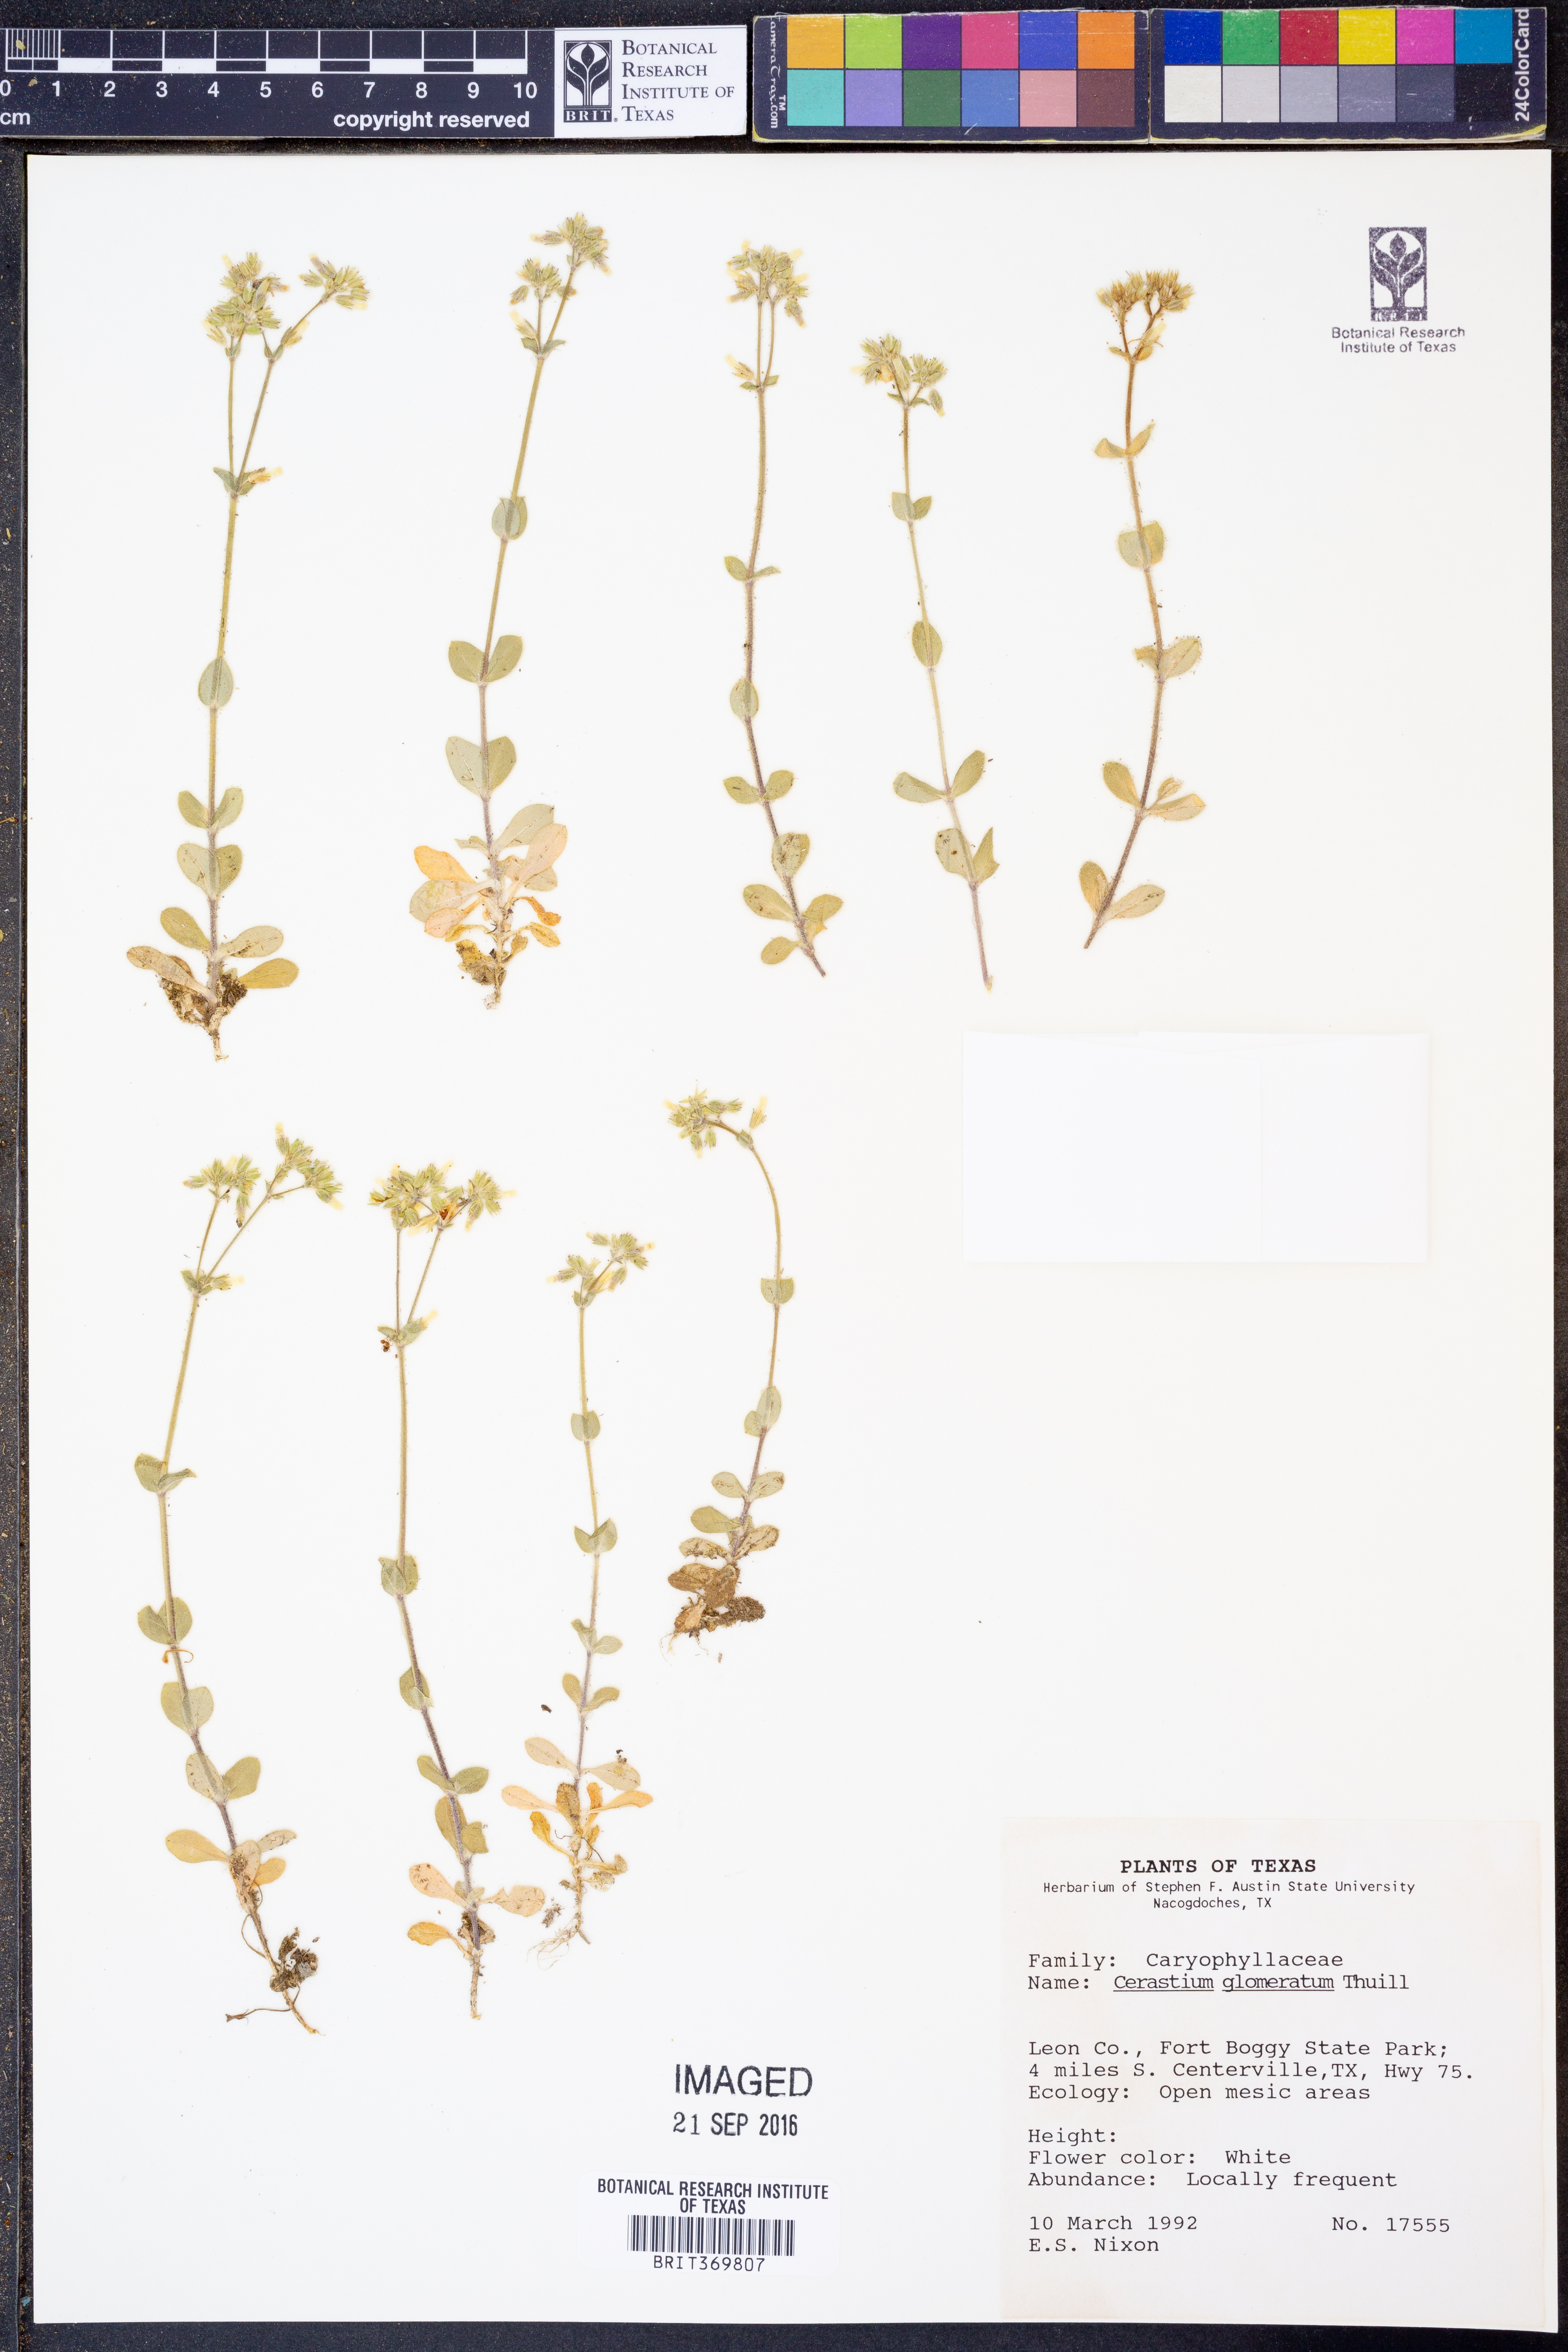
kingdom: Plantae
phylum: Tracheophyta
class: Magnoliopsida
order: Caryophyllales
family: Caryophyllaceae
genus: Cerastium
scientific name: Cerastium glomeratum
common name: Sticky chickweed
